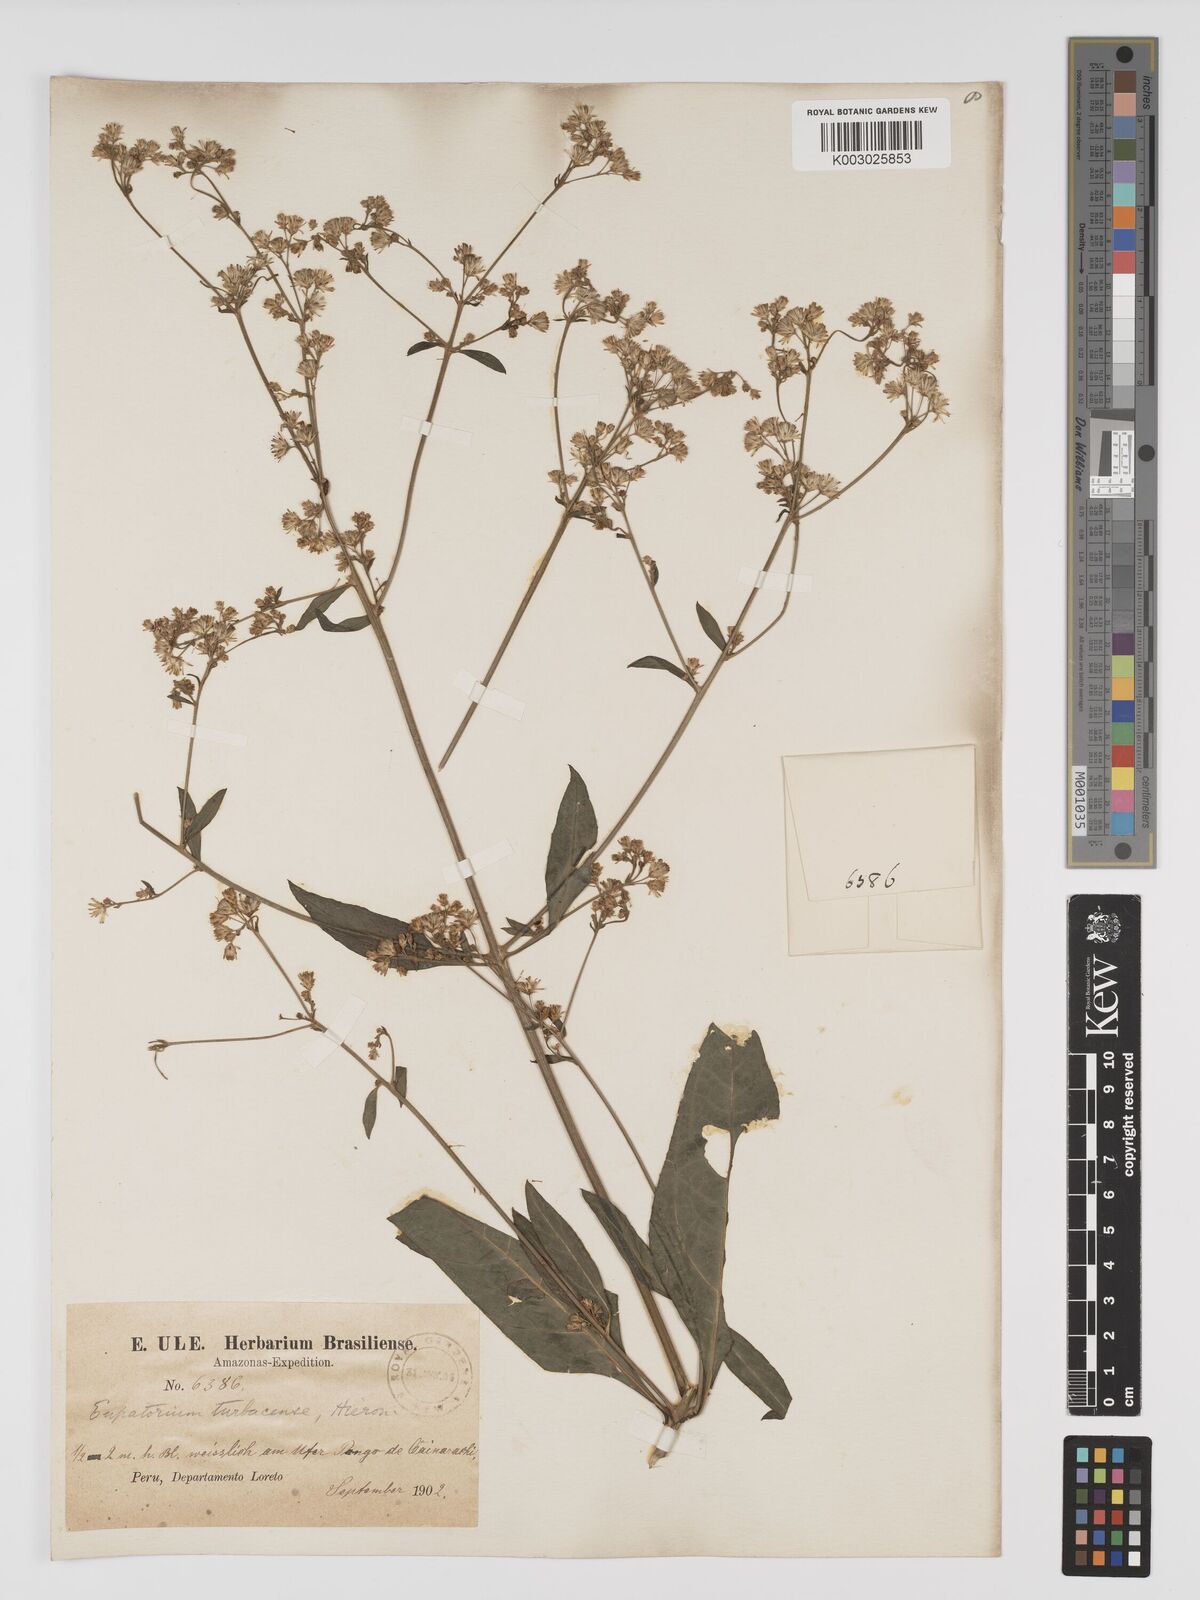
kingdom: Plantae
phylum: Tracheophyta
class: Magnoliopsida
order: Asterales
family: Asteraceae
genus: Ayapana
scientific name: Ayapana turbacensis
